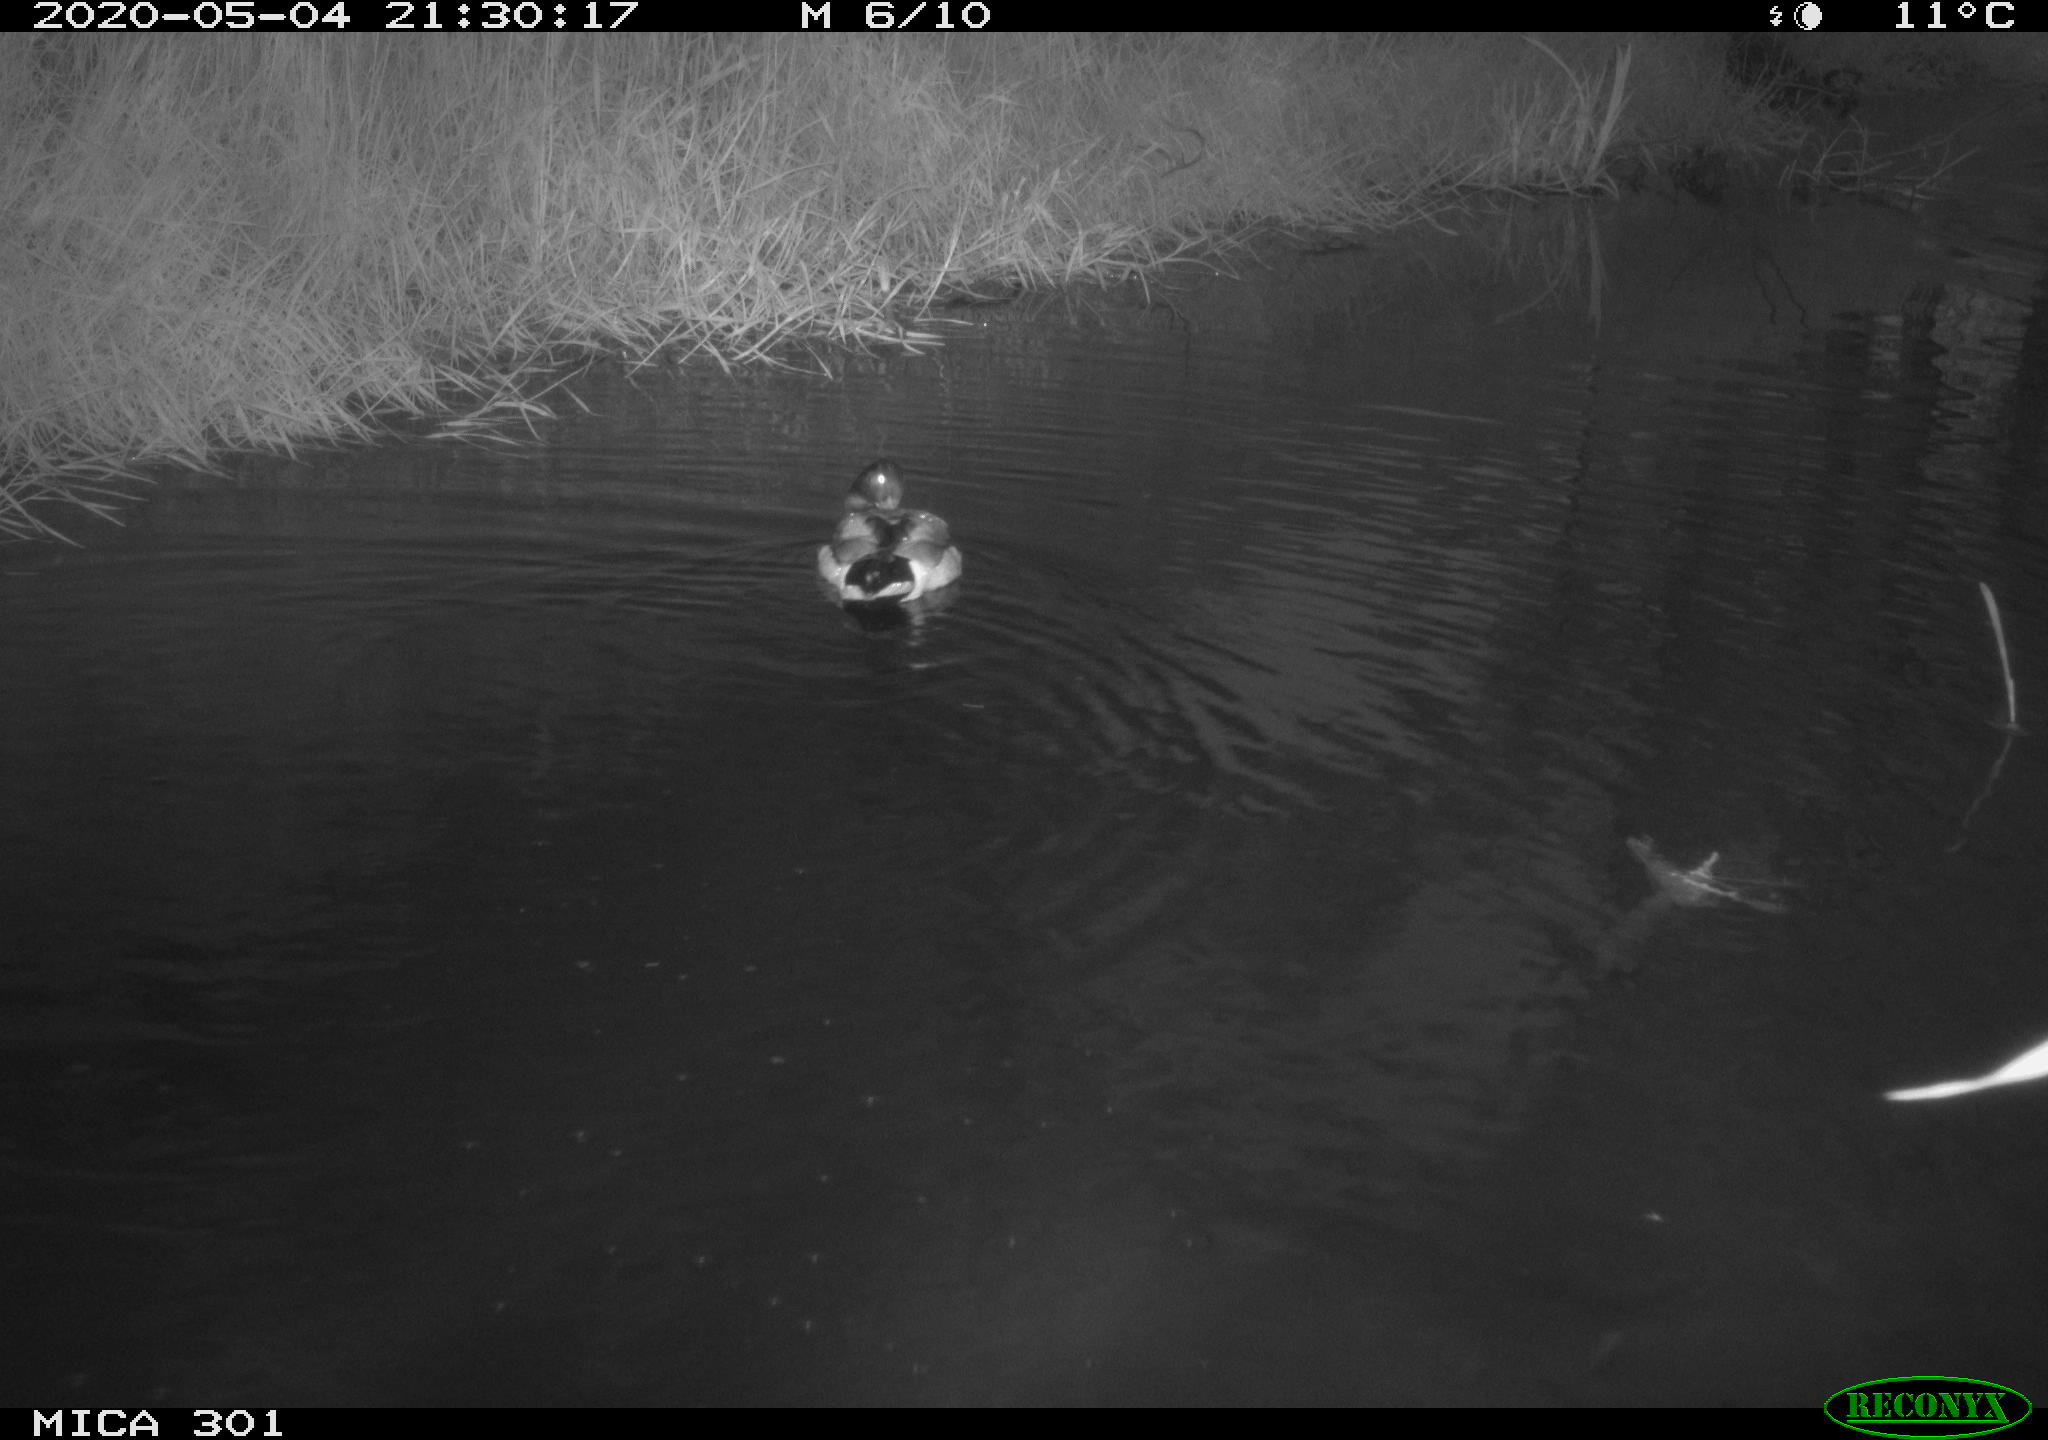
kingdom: Animalia
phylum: Chordata
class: Aves
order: Anseriformes
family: Anatidae
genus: Anas
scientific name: Anas platyrhynchos
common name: Mallard
